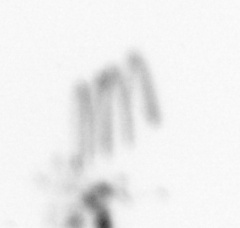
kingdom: Chromista
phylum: Ochrophyta
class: Bacillariophyceae
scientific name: Bacillariophyceae
